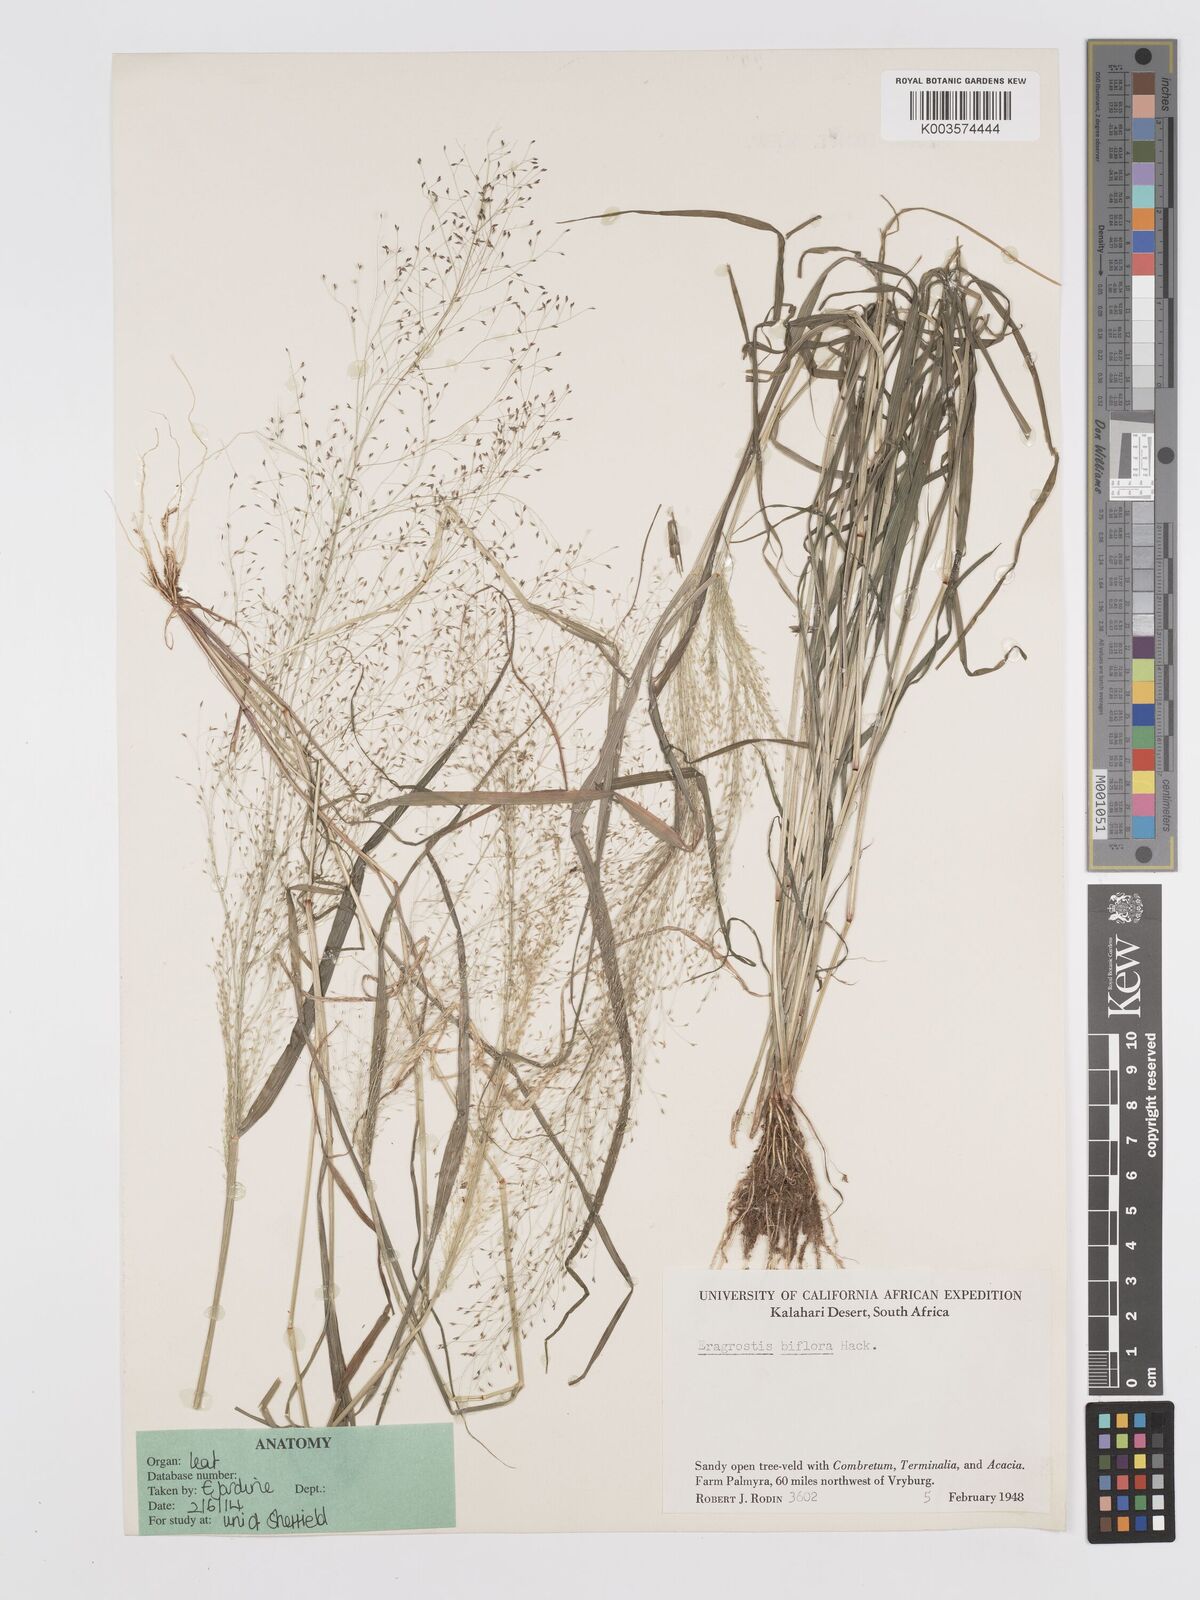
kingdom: Plantae
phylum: Tracheophyta
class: Liliopsida
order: Poales
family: Poaceae
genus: Eragrostis
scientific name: Eragrostis biflora
